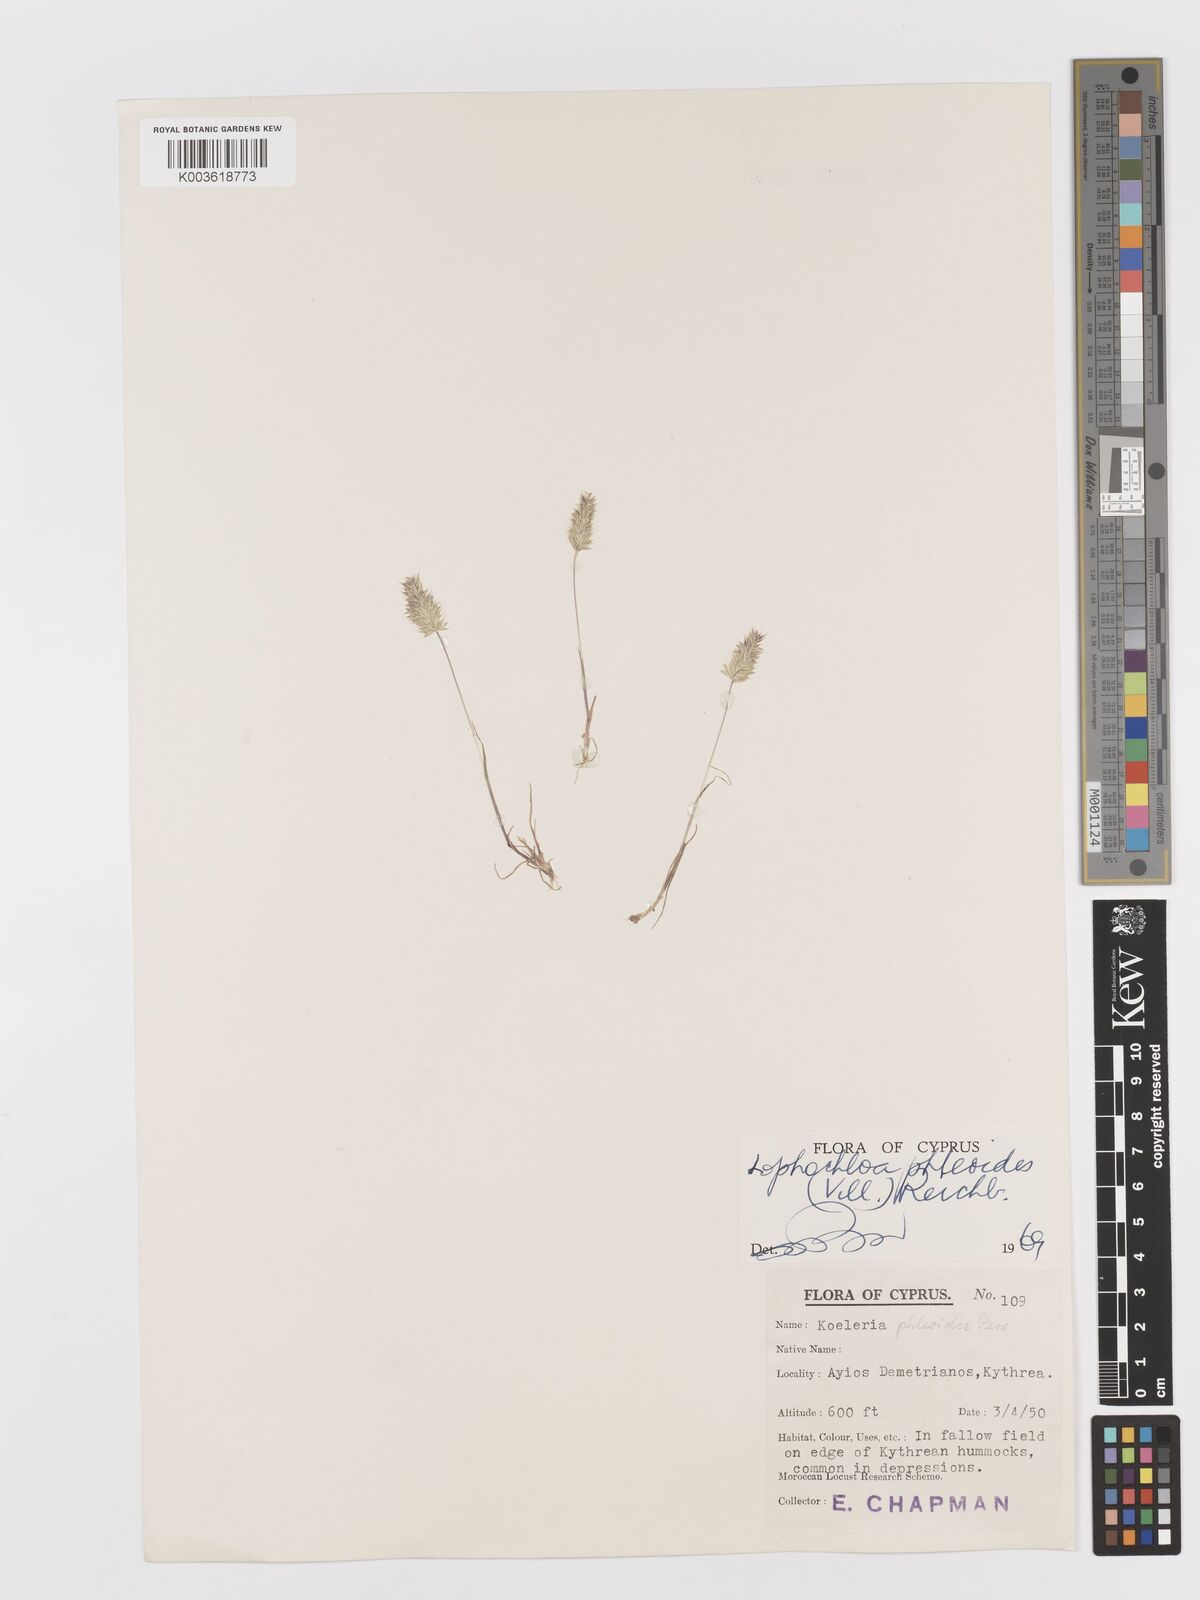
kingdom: Plantae
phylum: Tracheophyta
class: Liliopsida
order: Poales
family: Poaceae
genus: Rostraria
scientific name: Rostraria cristata
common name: Mediterranean hair-grass
